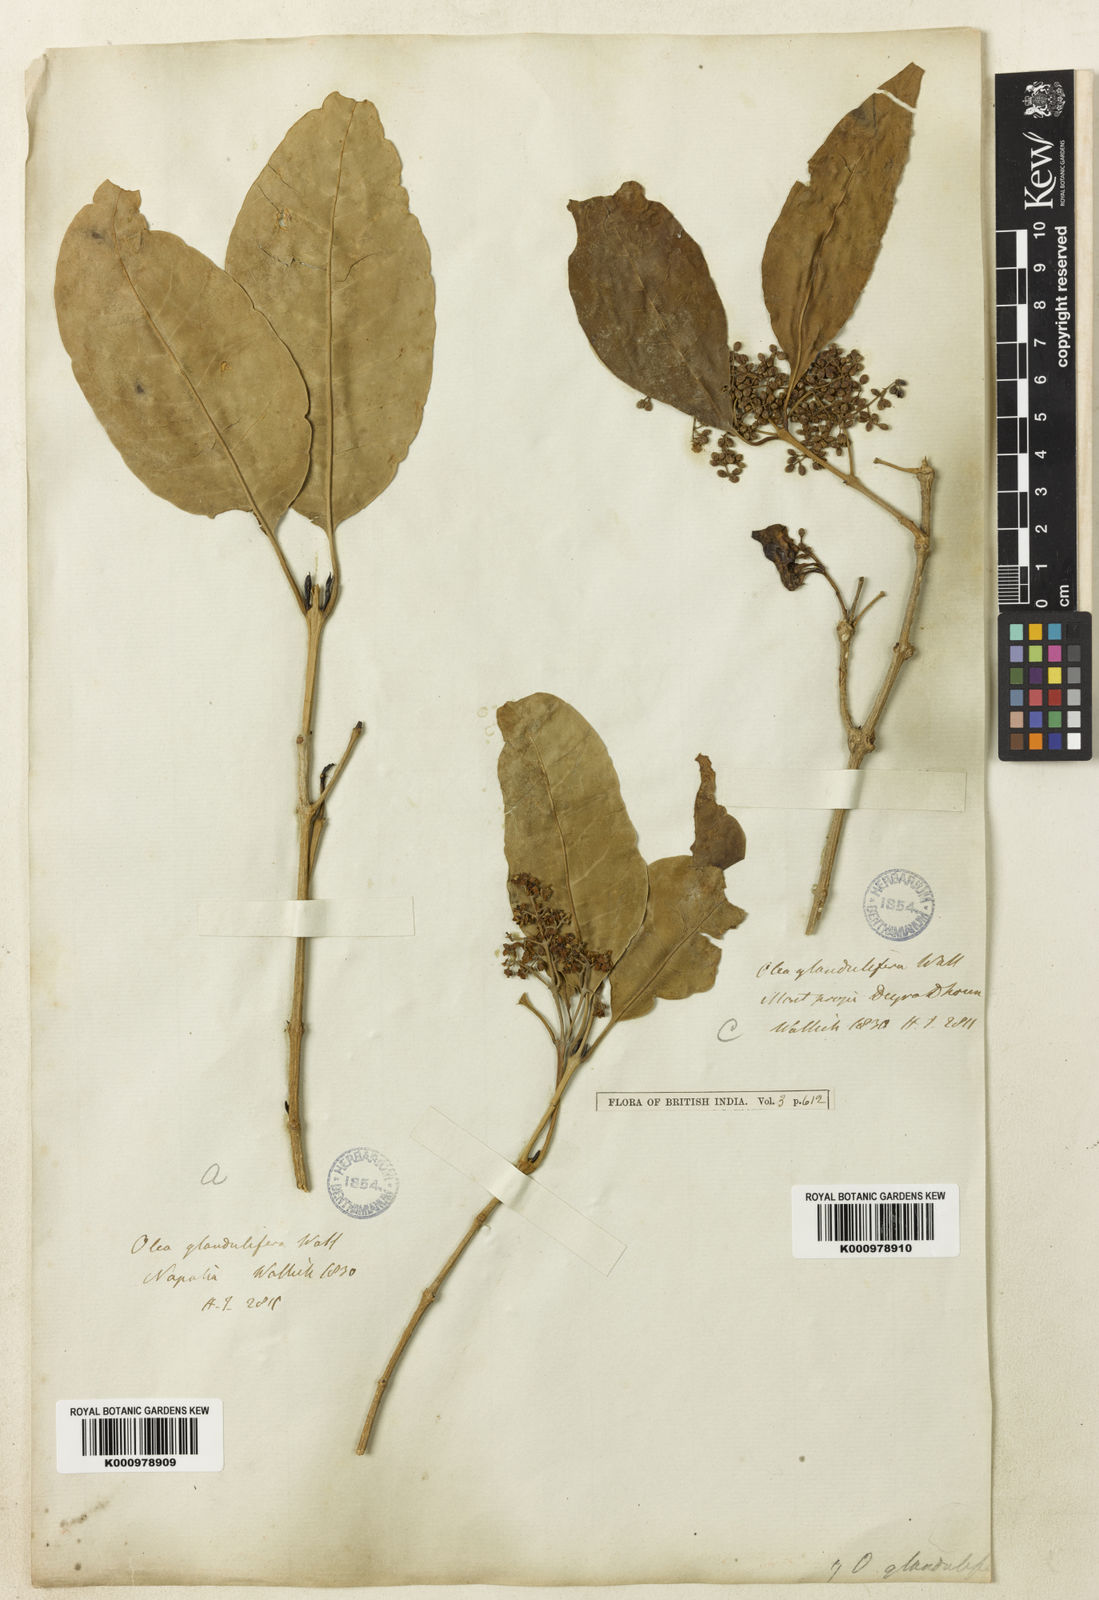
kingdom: Plantae
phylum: Tracheophyta
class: Magnoliopsida
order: Lamiales
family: Oleaceae
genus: Olea
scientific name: Olea
